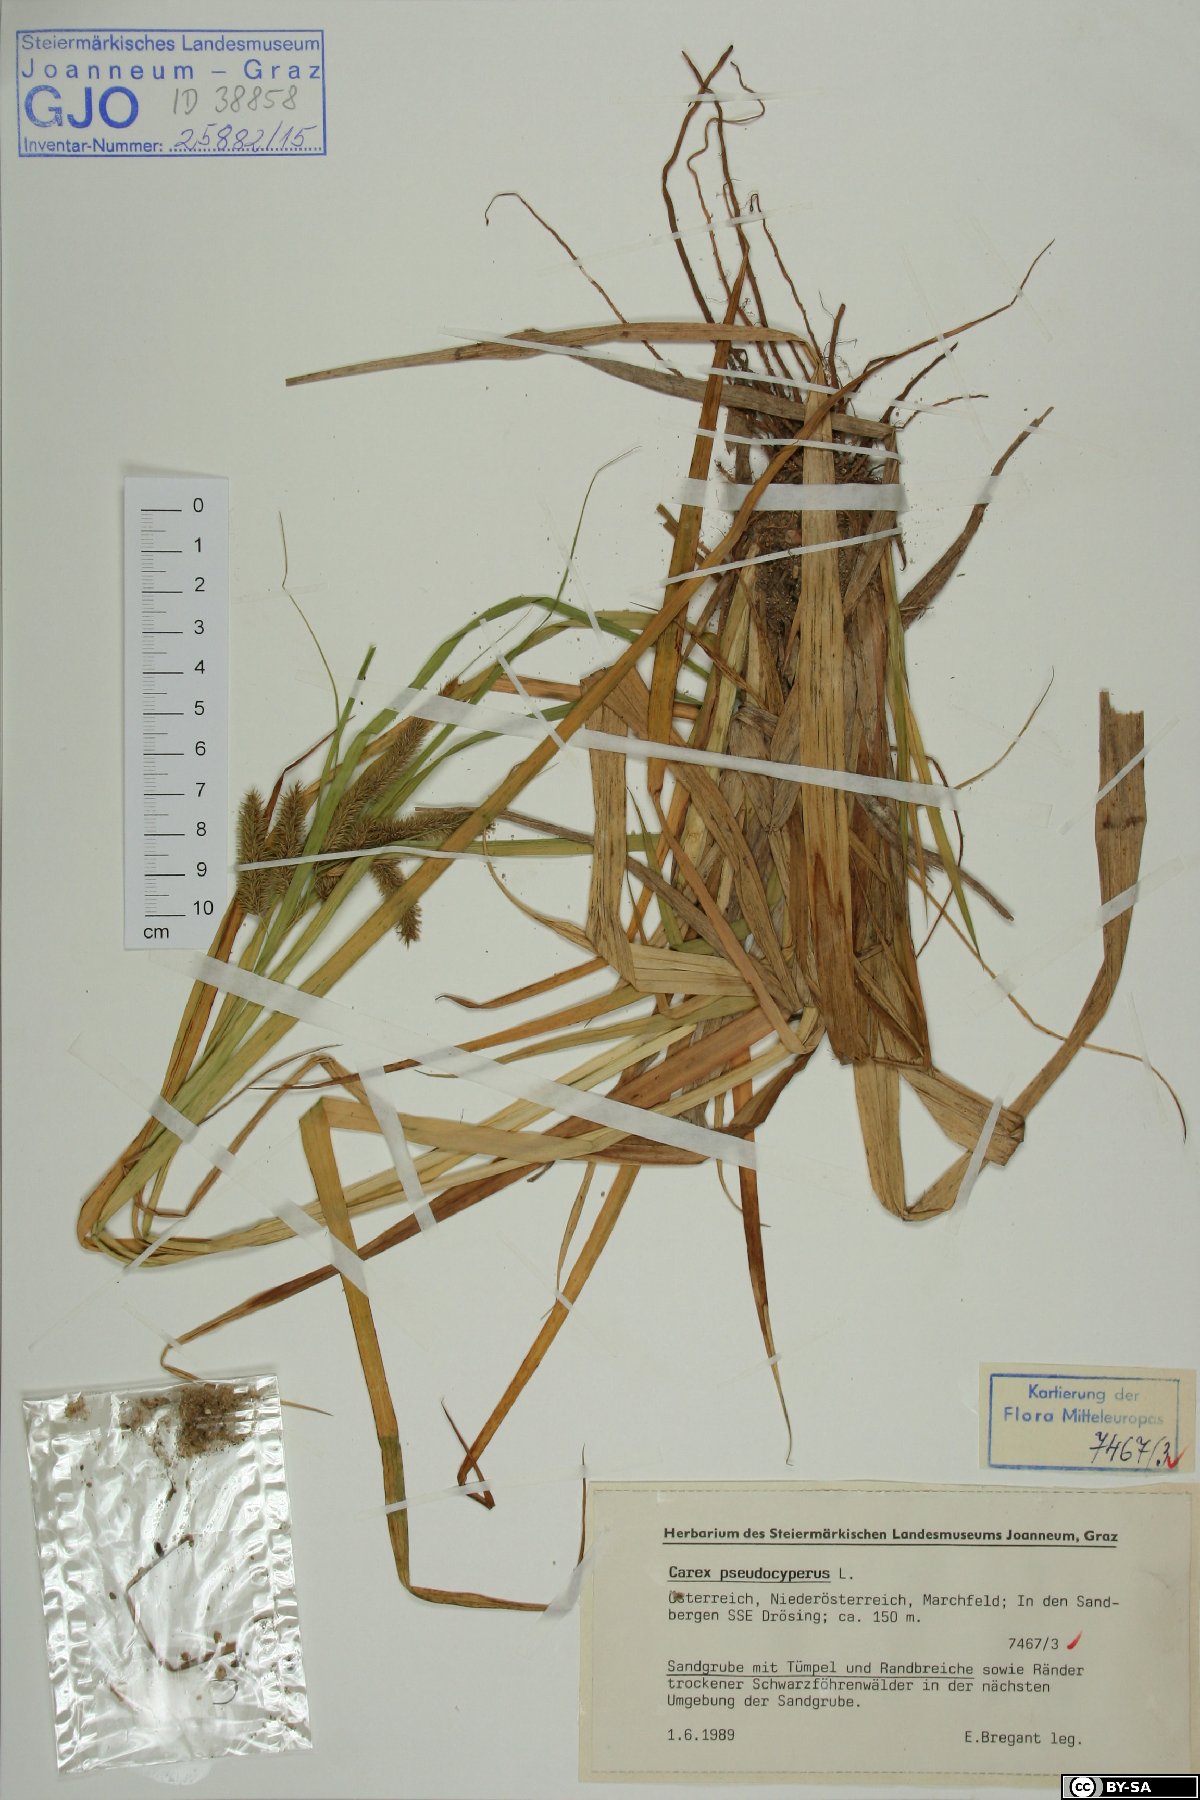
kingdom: Plantae
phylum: Tracheophyta
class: Liliopsida
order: Poales
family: Cyperaceae
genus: Carex
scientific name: Carex pseudocyperus
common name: Cyperus sedge
